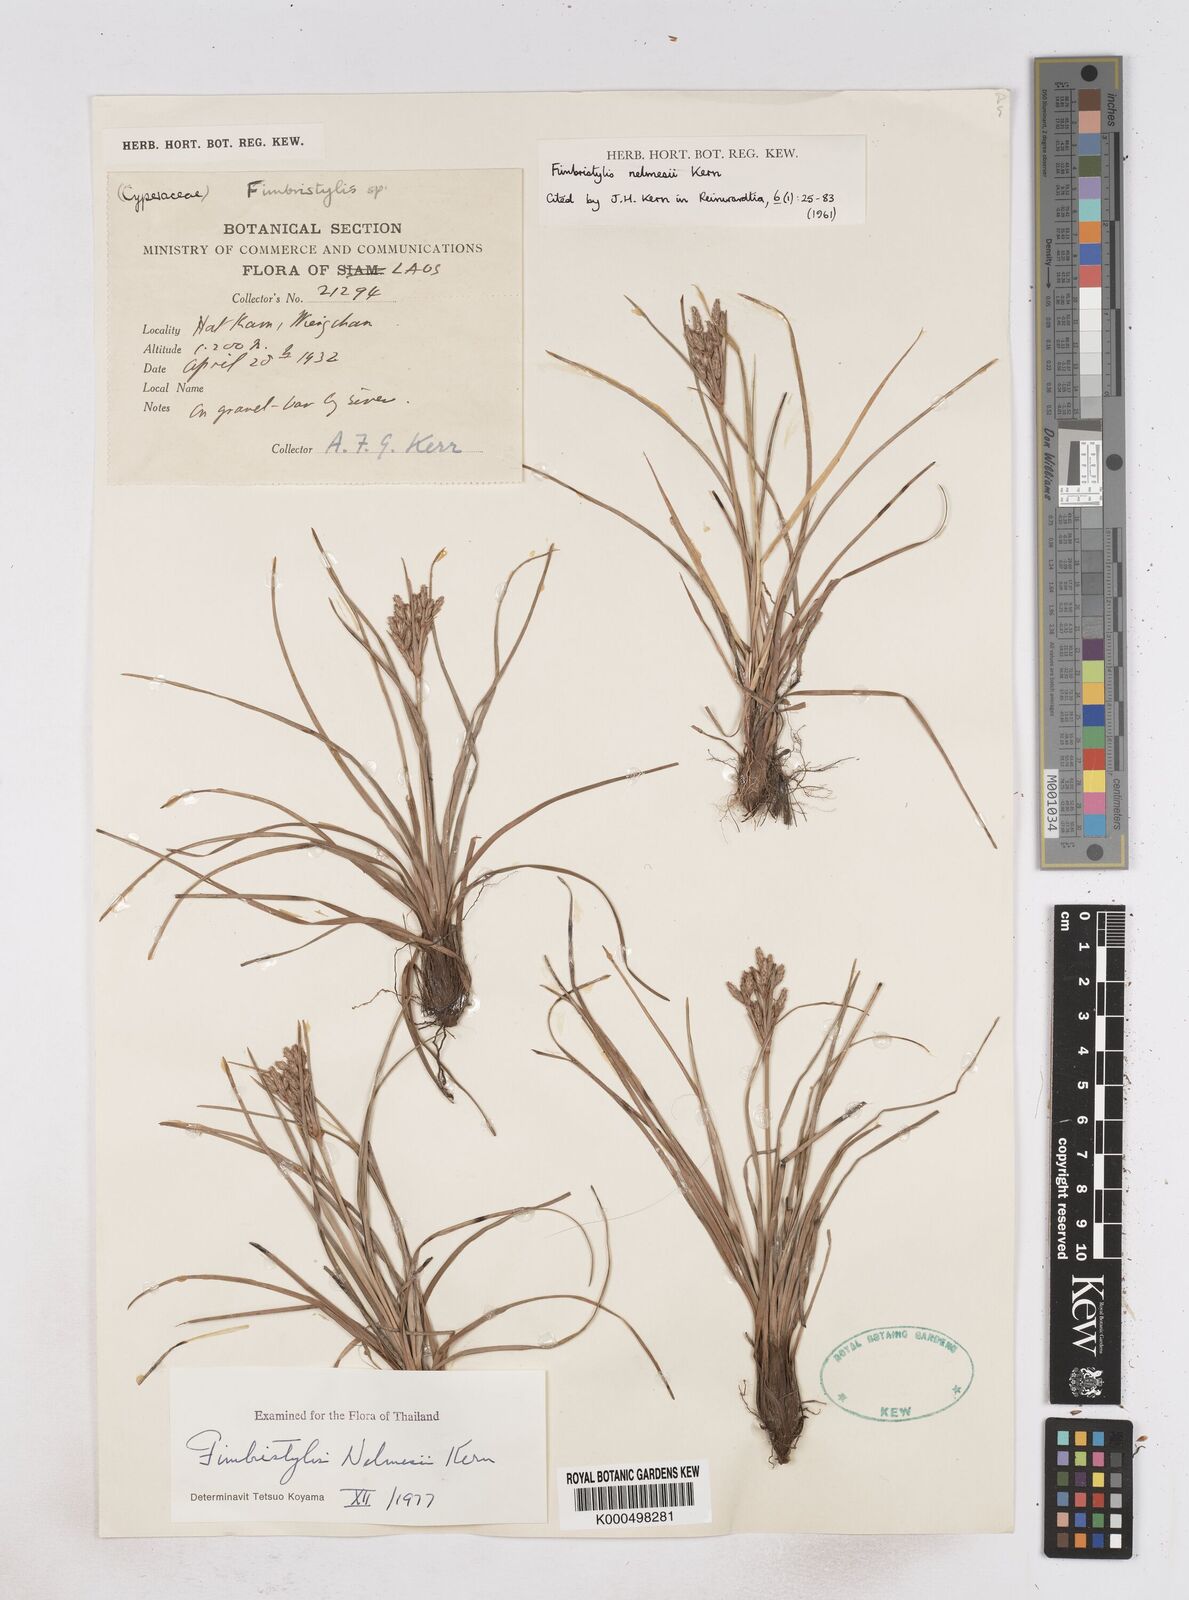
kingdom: Plantae
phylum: Tracheophyta
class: Liliopsida
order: Poales
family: Cyperaceae
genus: Fimbristylis
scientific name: Fimbristylis nelmesii
